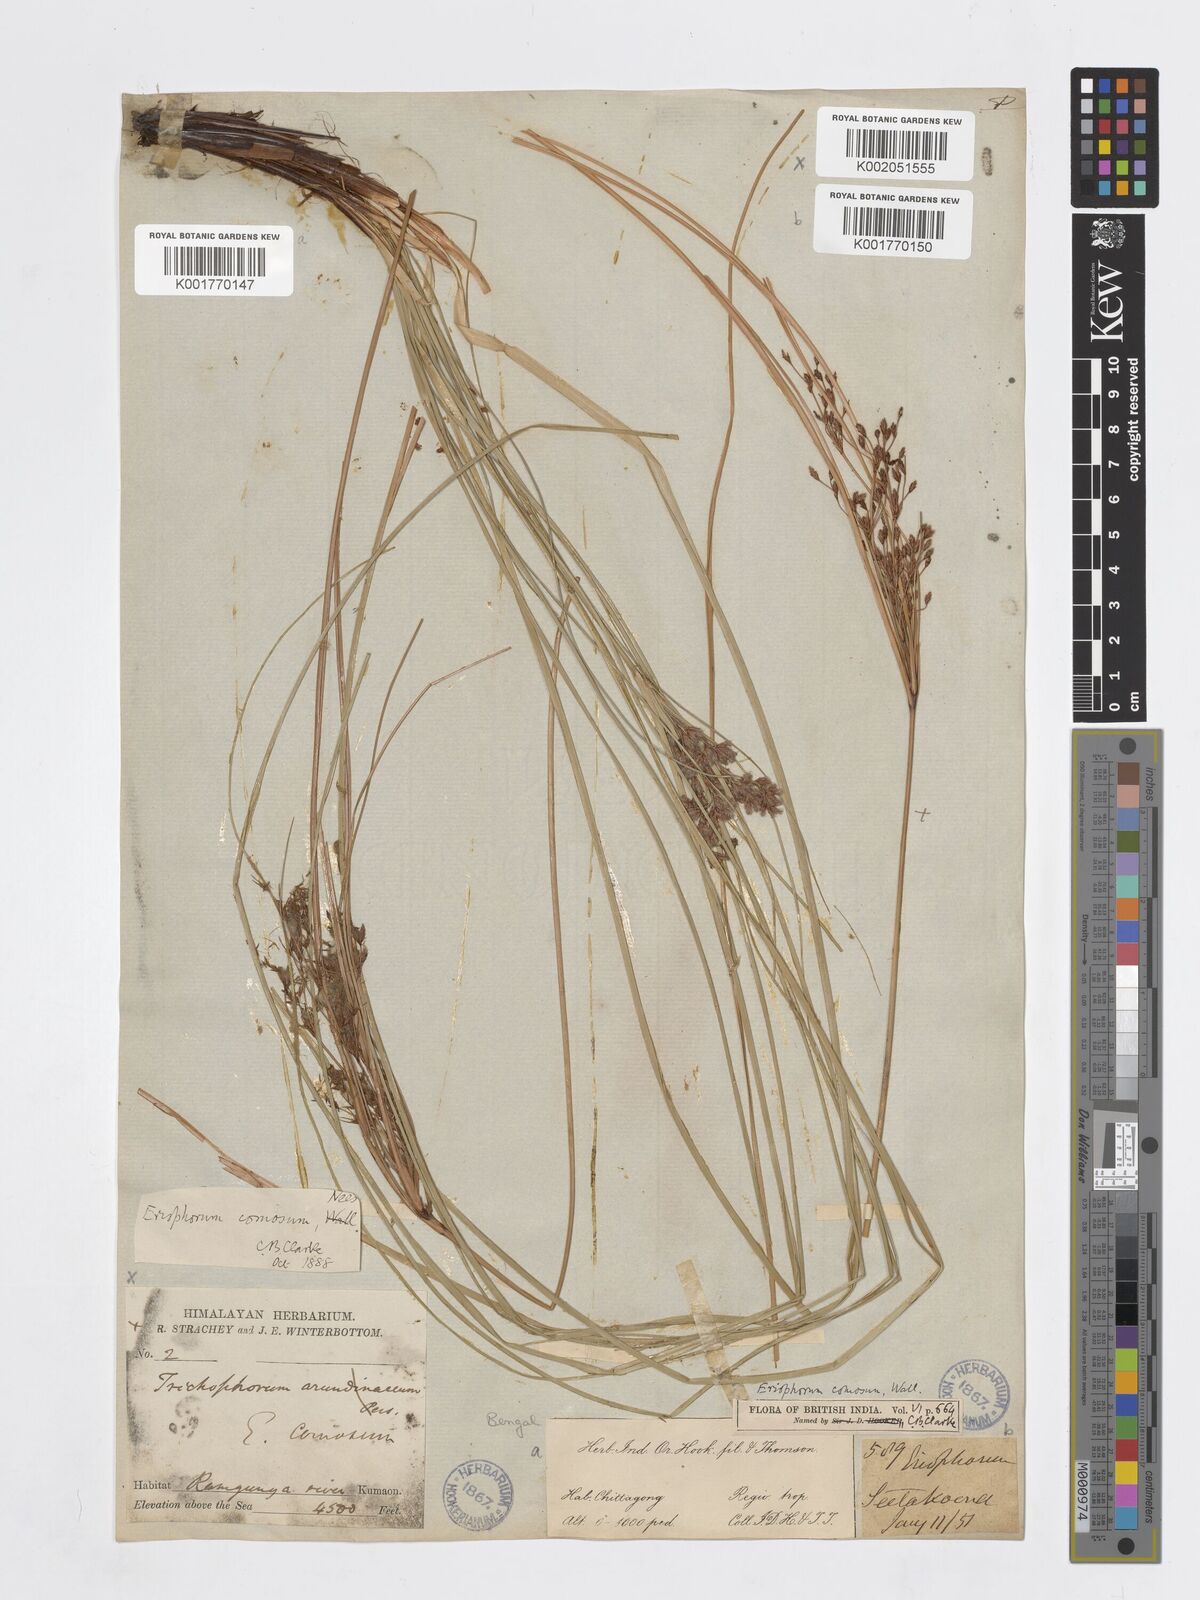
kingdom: Plantae
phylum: Tracheophyta
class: Liliopsida
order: Poales
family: Cyperaceae
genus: Erioscirpus
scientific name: Erioscirpus comosus
